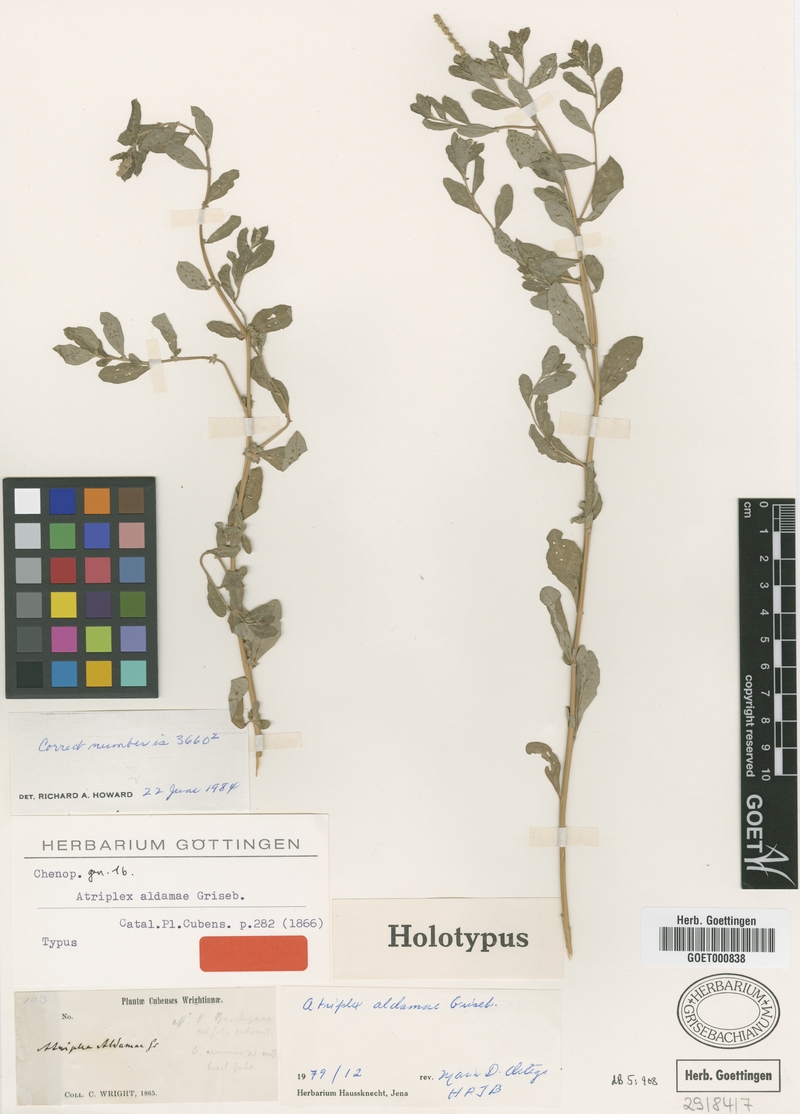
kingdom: Plantae
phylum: Tracheophyta
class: Magnoliopsida
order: Caryophyllales
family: Amaranthaceae
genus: Atriplex
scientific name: Atriplex aldamae
